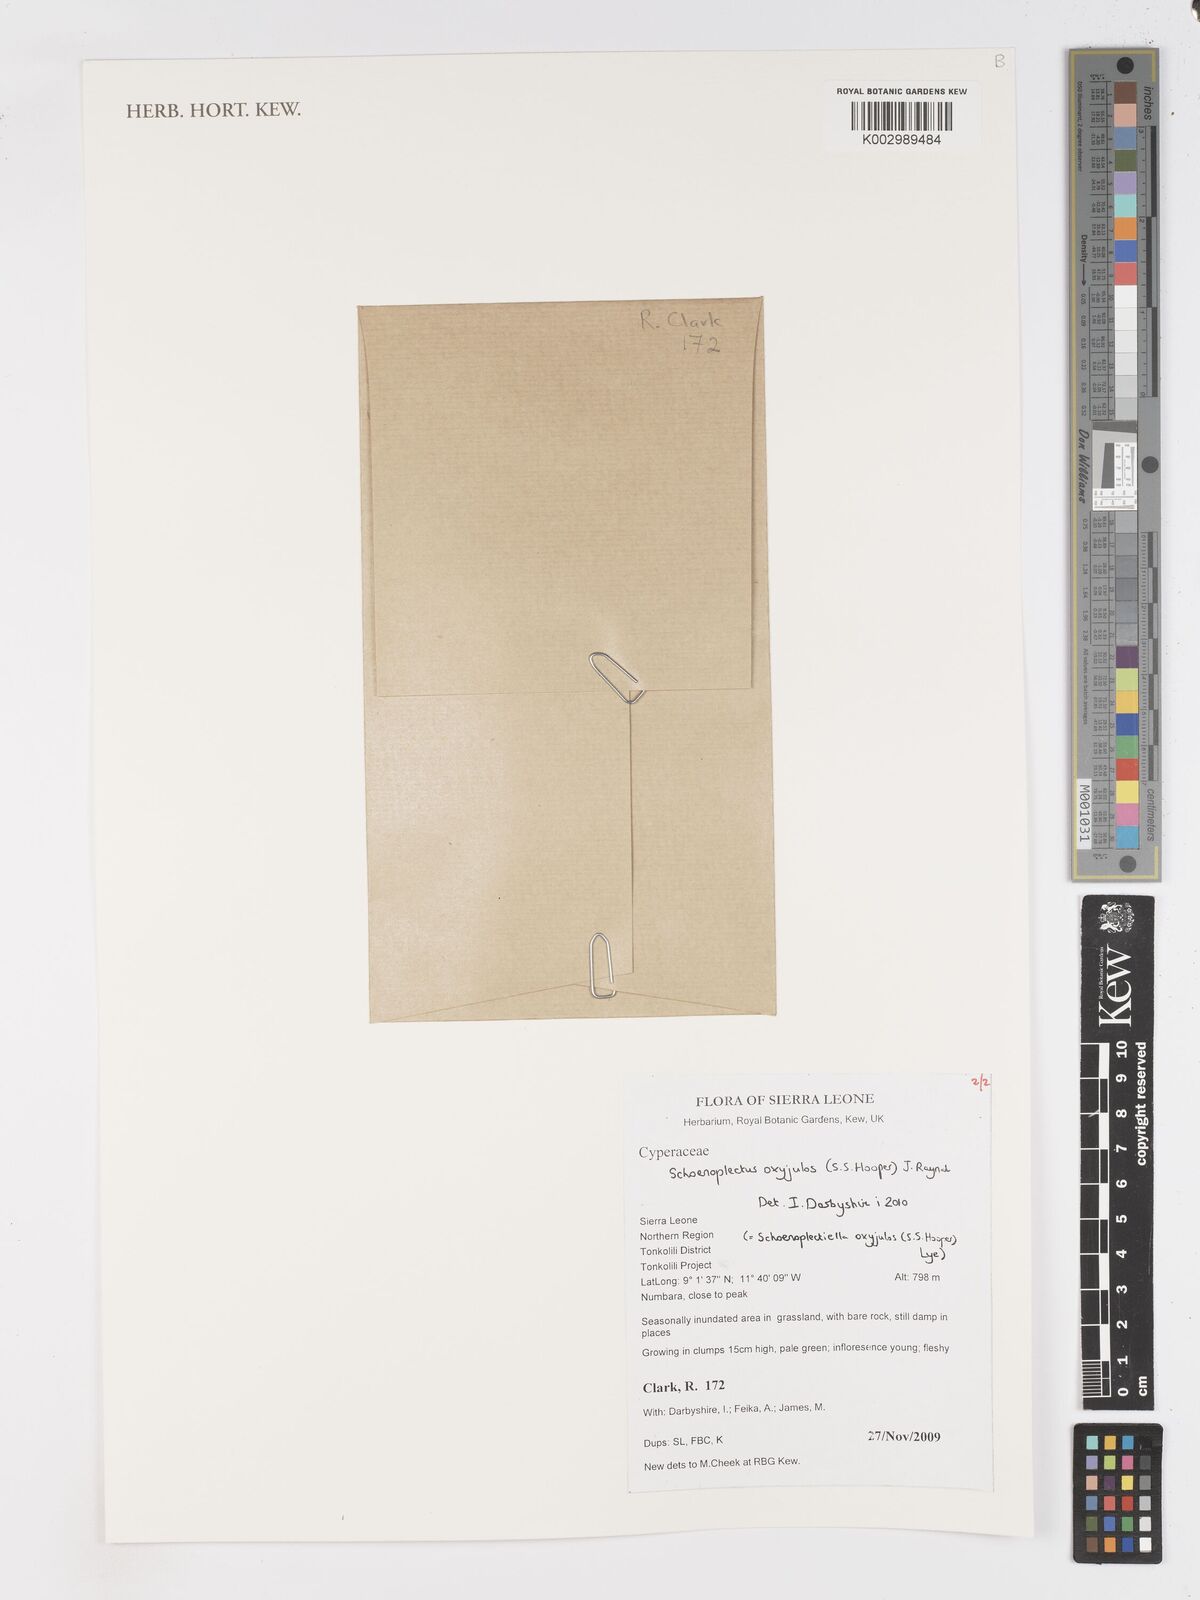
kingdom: Plantae
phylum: Tracheophyta
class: Liliopsida
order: Poales
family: Cyperaceae
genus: Schoenoplectiella
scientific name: Schoenoplectiella oxyjulos
